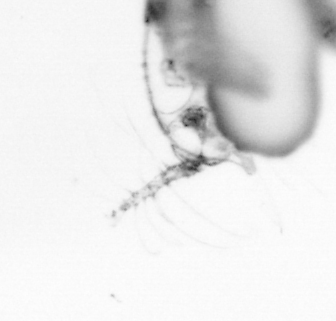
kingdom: Animalia
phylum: Arthropoda
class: Copepoda
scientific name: Copepoda
